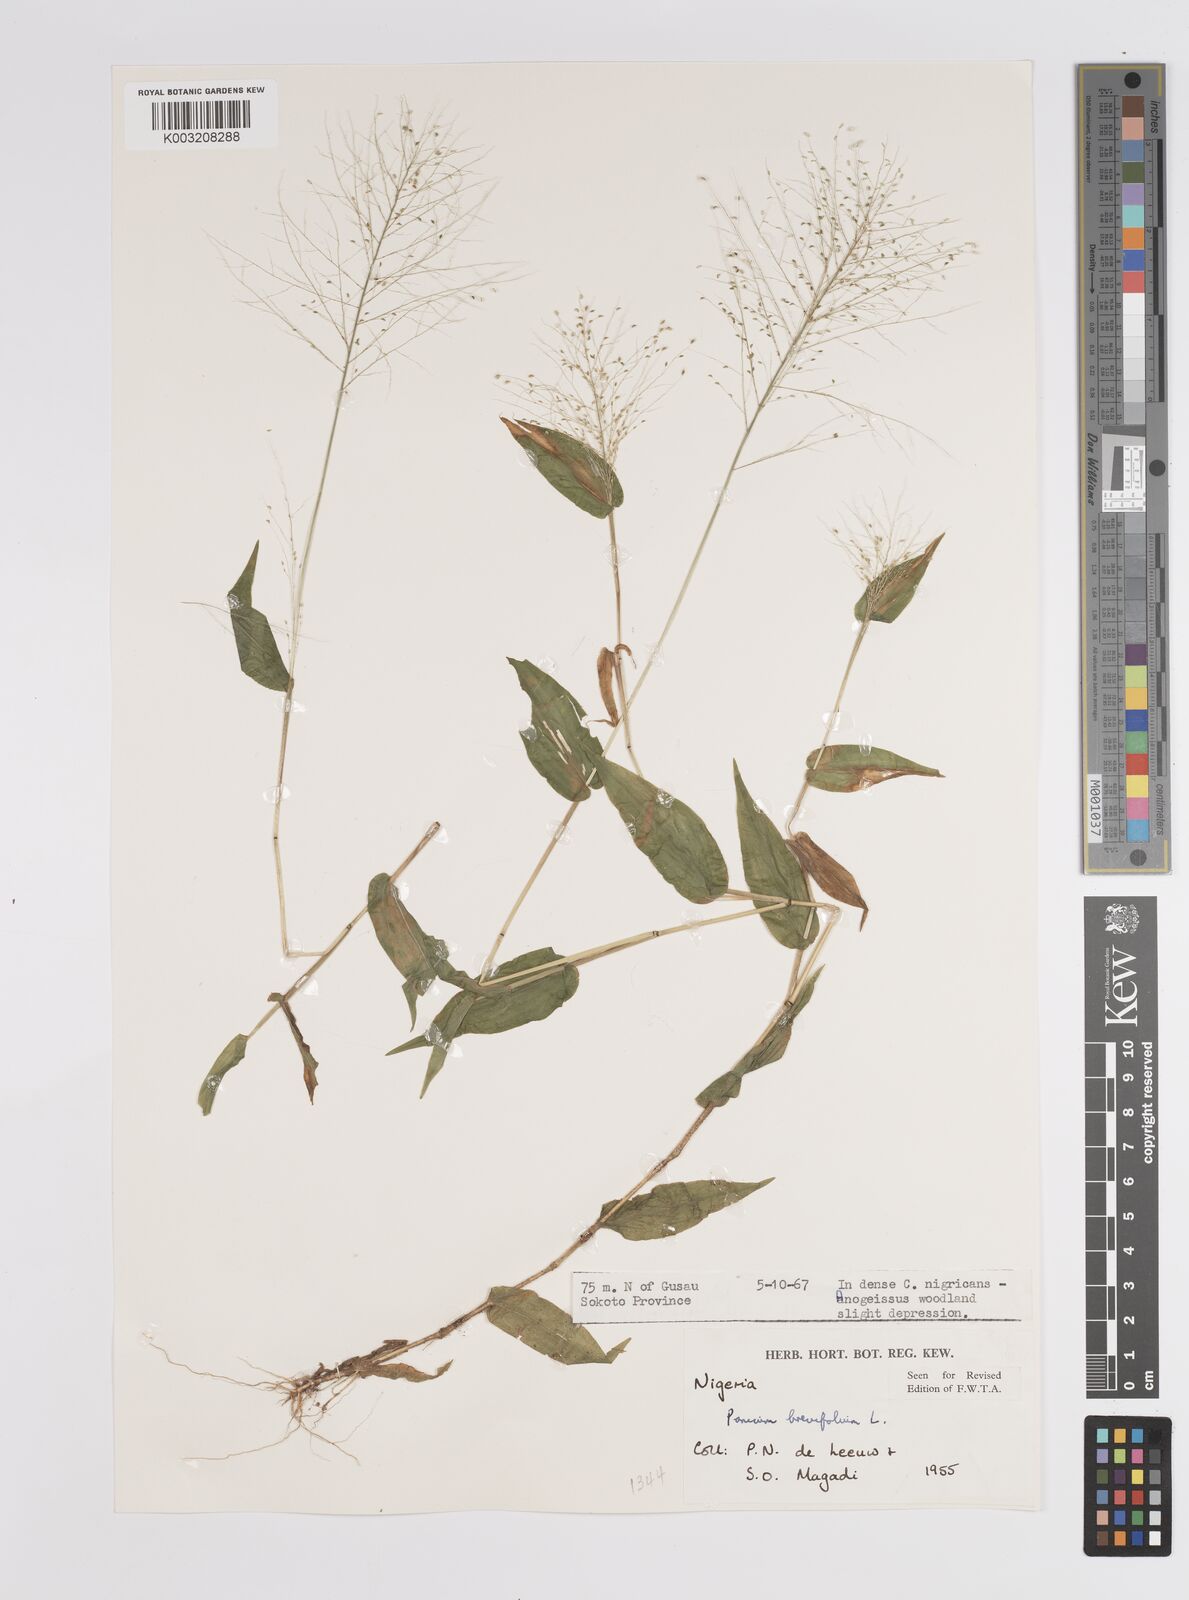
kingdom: Plantae
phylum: Tracheophyta
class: Liliopsida
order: Poales
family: Poaceae
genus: Panicum
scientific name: Panicum brevifolium
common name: Shortleaf panic grass
